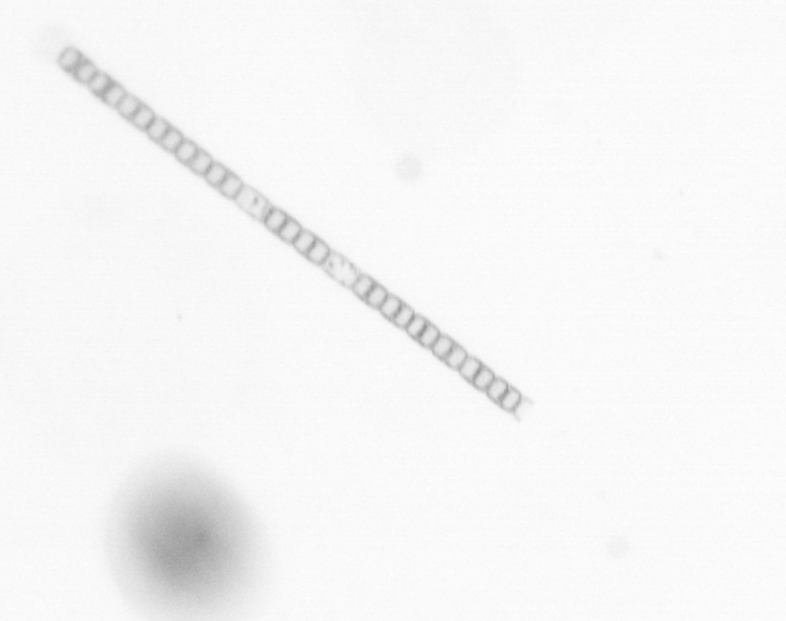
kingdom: Chromista
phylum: Ochrophyta
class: Bacillariophyceae
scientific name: Bacillariophyceae
